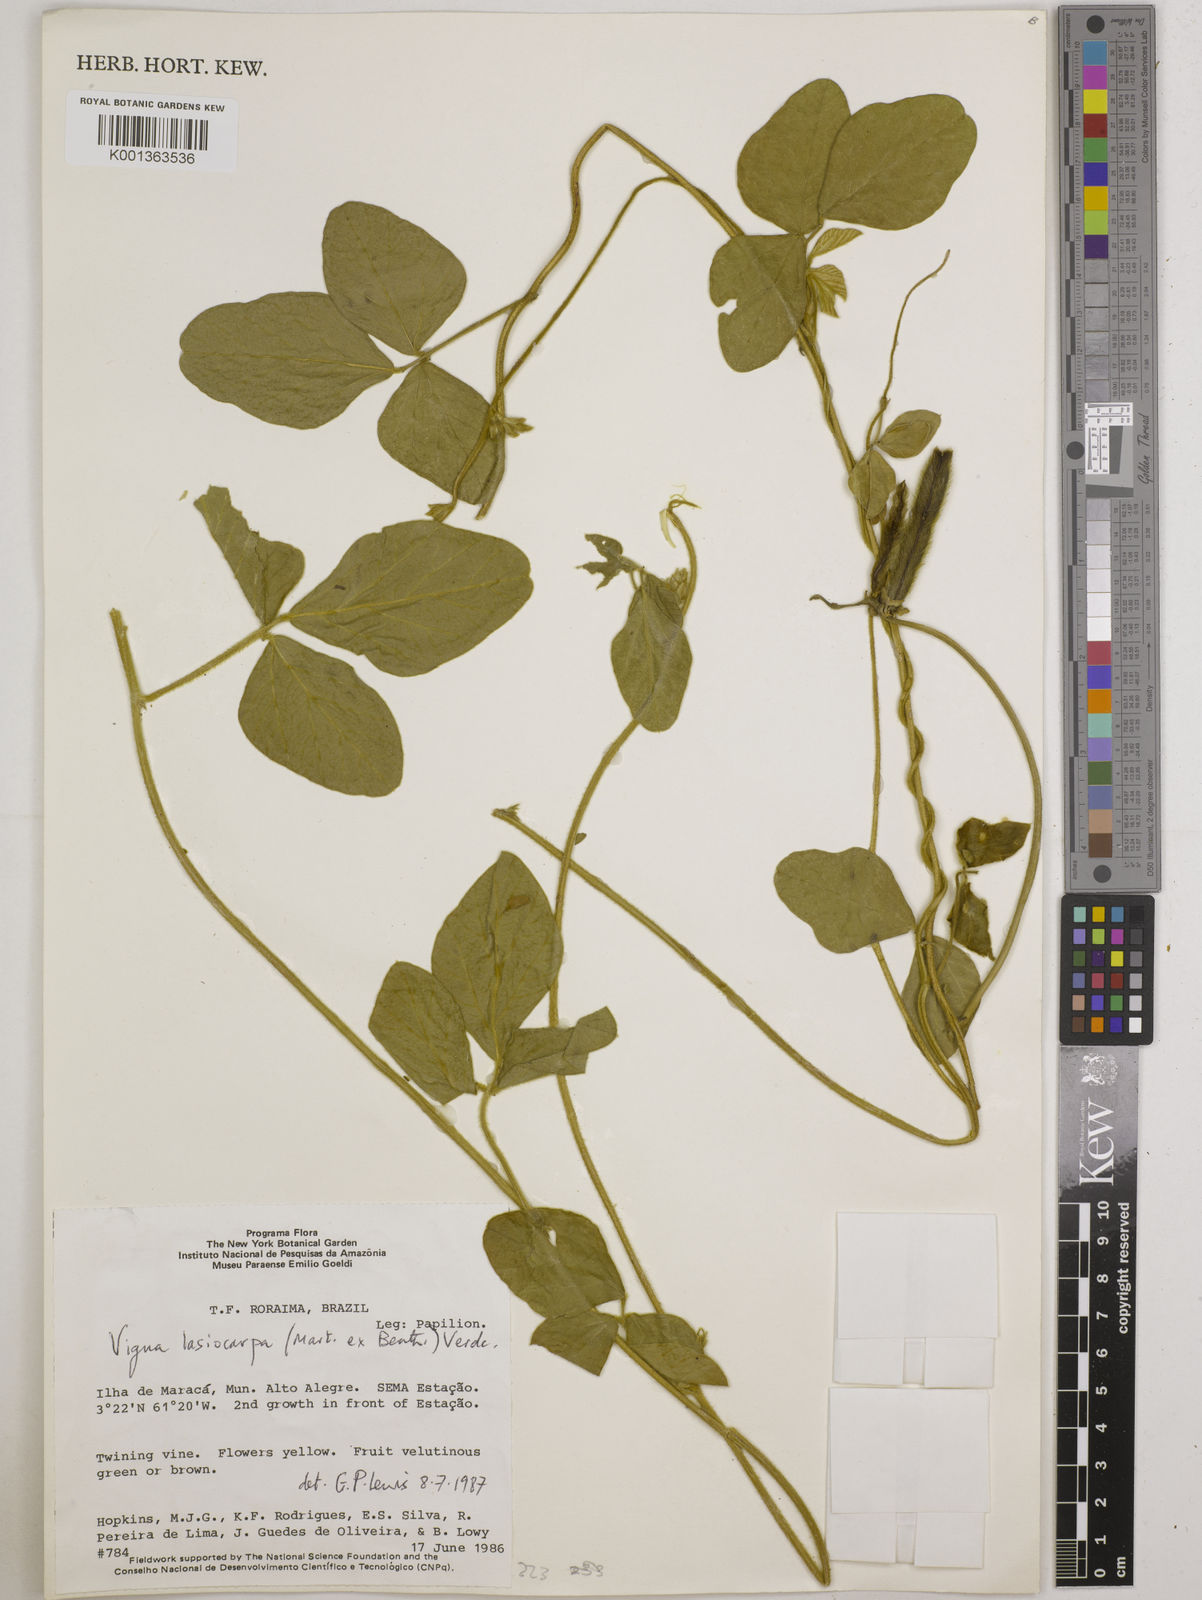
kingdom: Plantae
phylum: Tracheophyta
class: Magnoliopsida
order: Fabales
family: Fabaceae
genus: Vigna
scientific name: Vigna lasiocarpa
